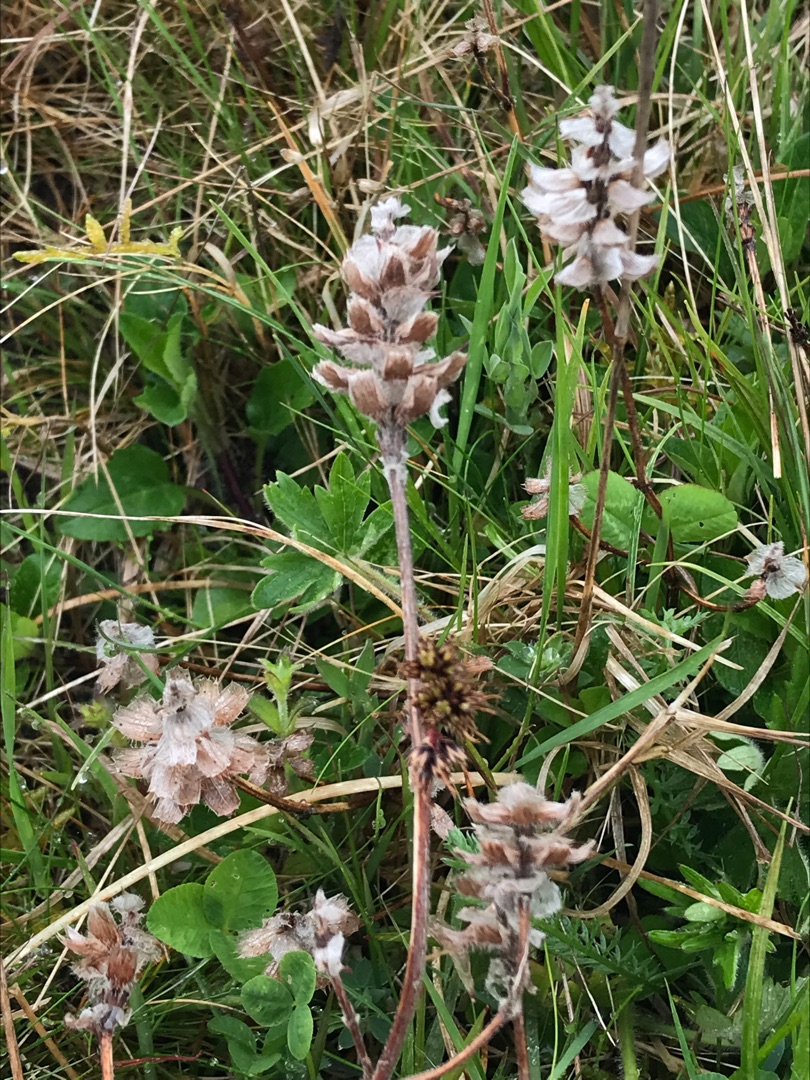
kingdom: Plantae
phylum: Tracheophyta
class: Magnoliopsida
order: Lamiales
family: Lamiaceae
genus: Prunella
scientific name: Prunella vulgaris
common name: Almindelig brunelle
